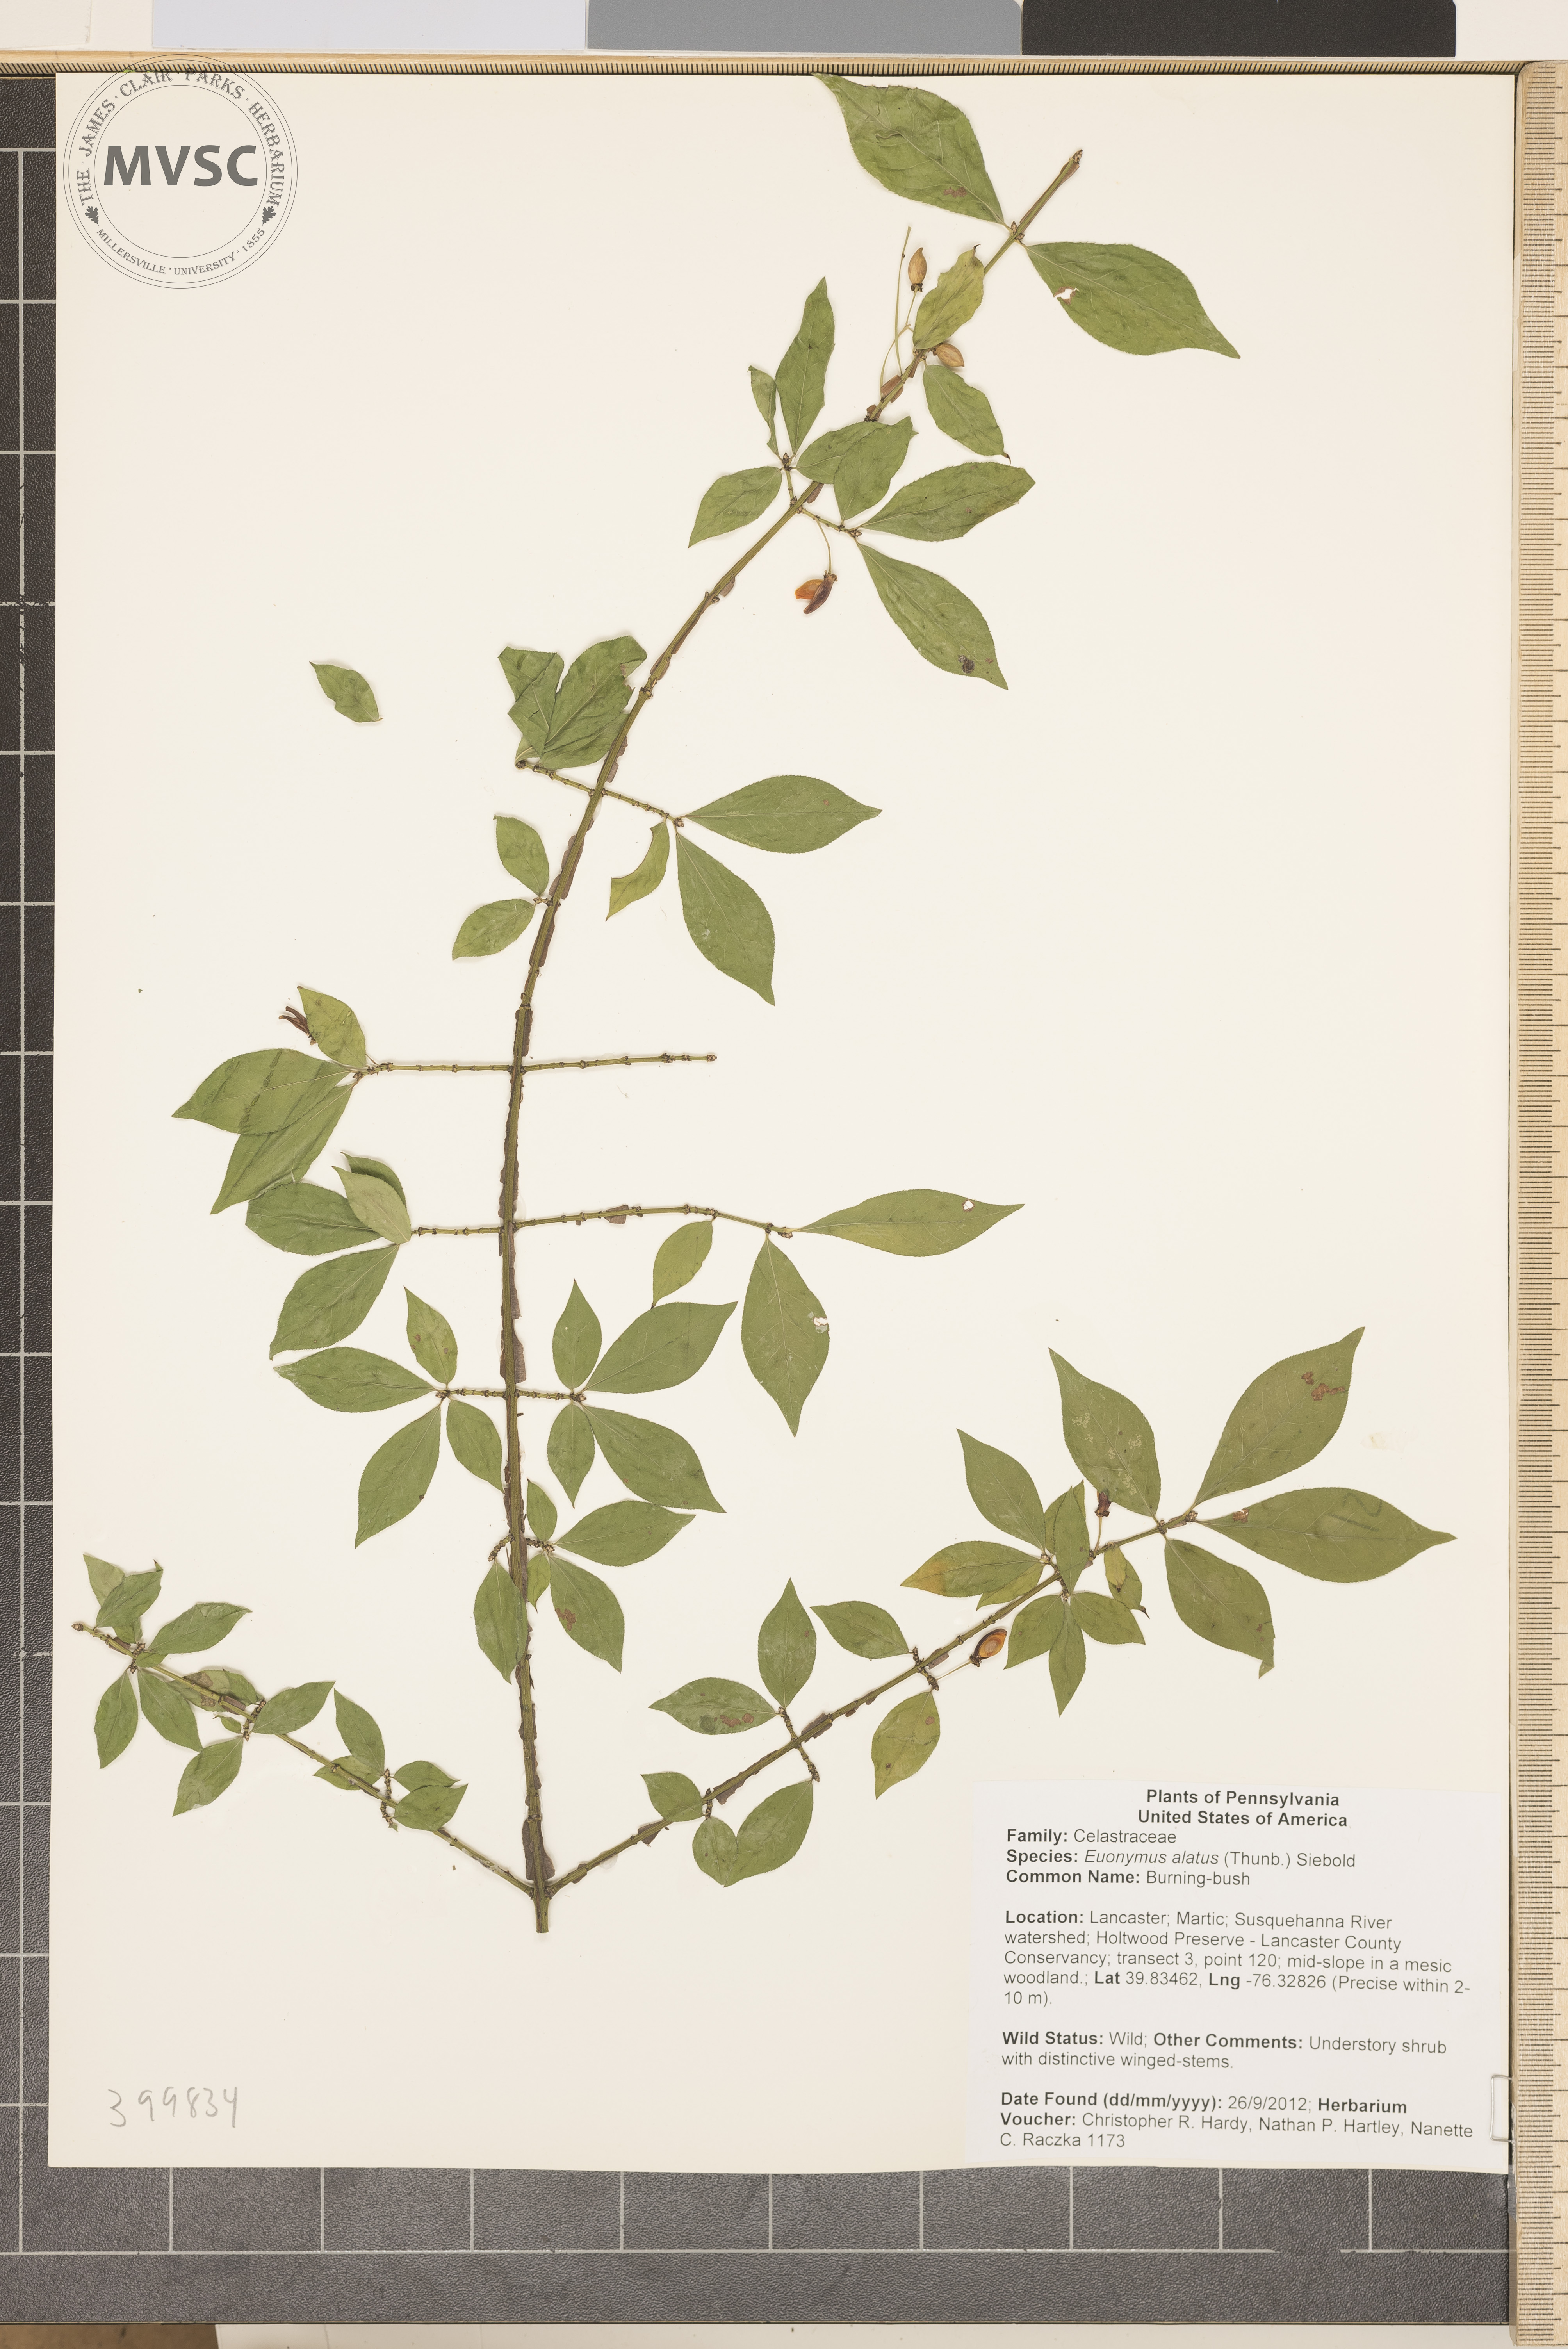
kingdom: Plantae
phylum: Tracheophyta
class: Magnoliopsida
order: Celastrales
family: Celastraceae
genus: Euonymus
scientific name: Euonymus alatus
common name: Burning-bush
